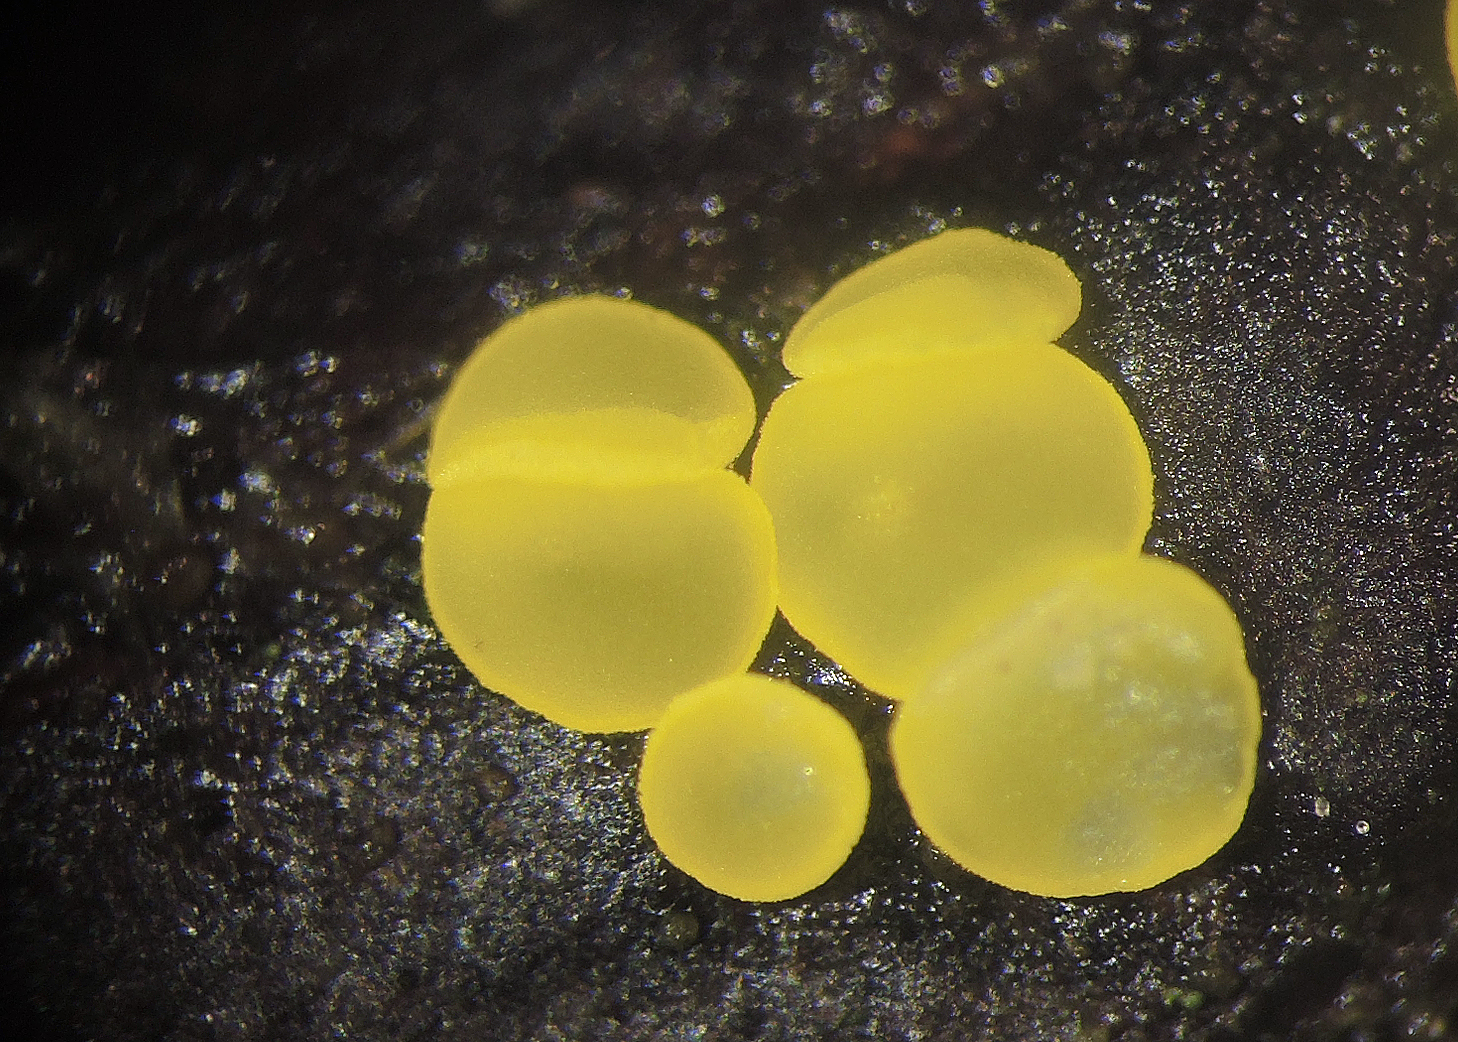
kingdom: Fungi
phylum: Ascomycota
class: Leotiomycetes
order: Helotiales
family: Pezizellaceae
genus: Calycina
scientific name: Calycina claroflava
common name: snyltende gulskive
